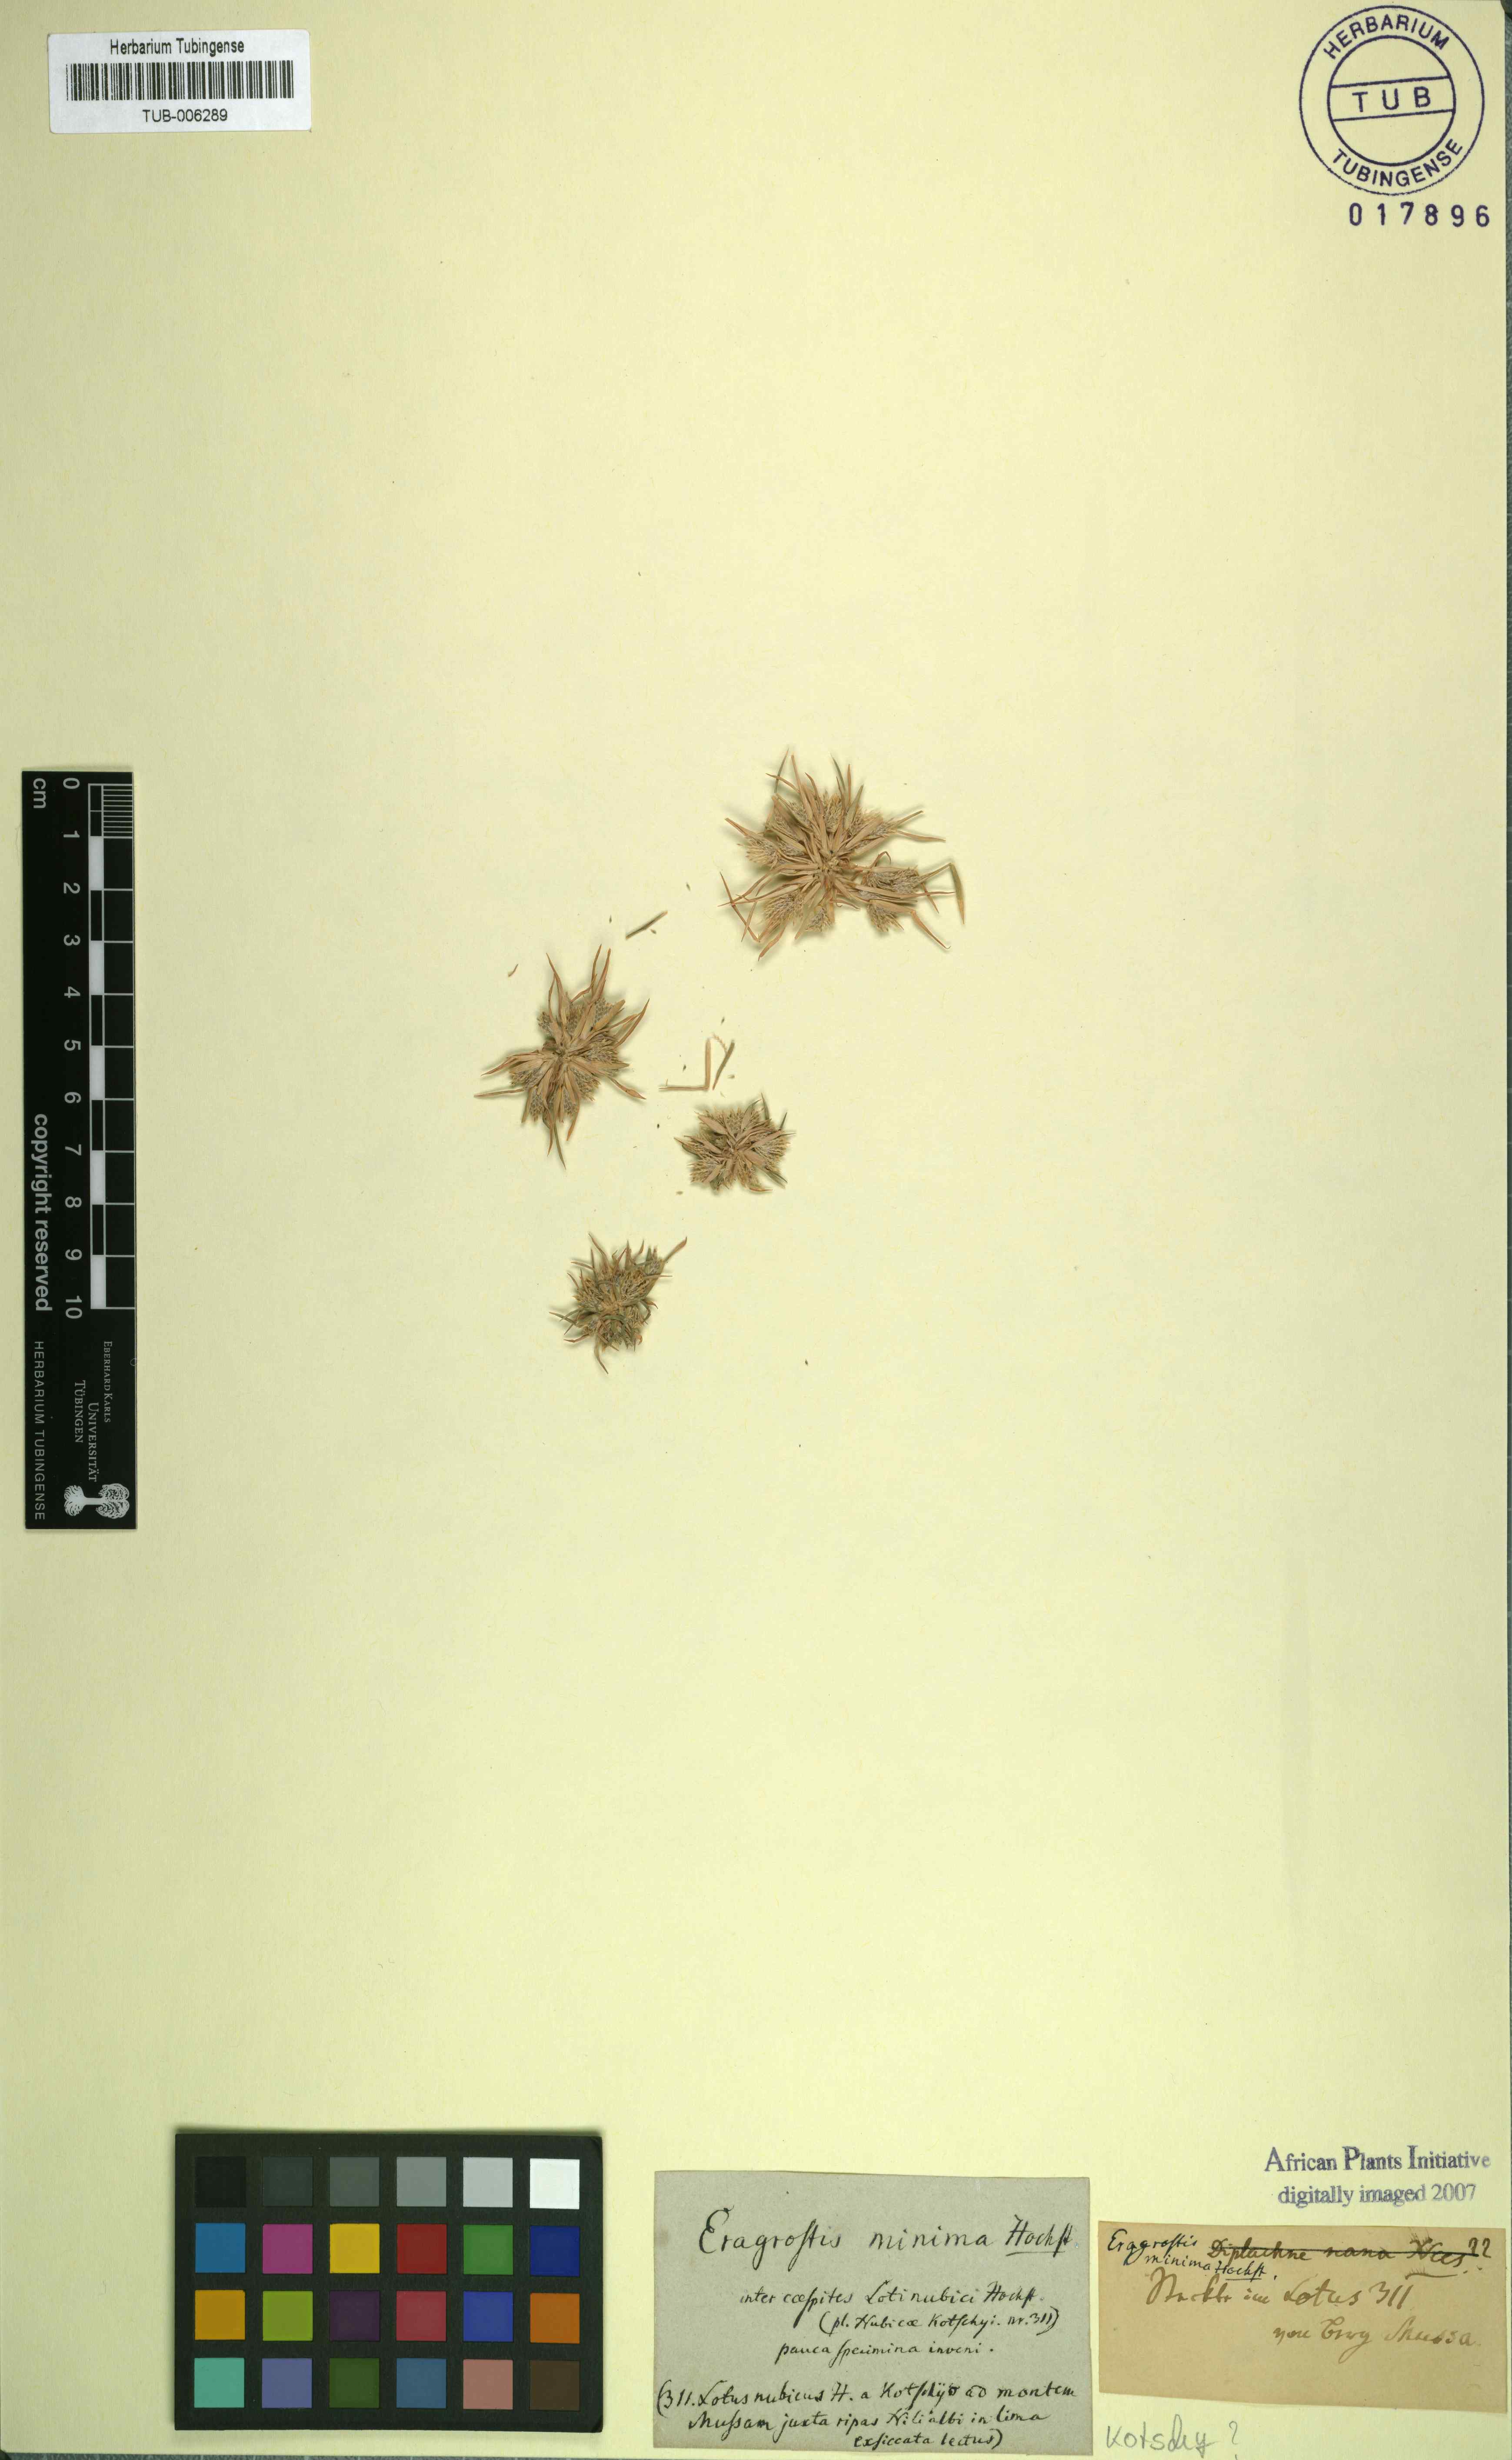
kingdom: Plantae
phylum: Tracheophyta
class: Liliopsida
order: Poales
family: Poaceae
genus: Eragrostis
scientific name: Eragrostis aegyptiaca
